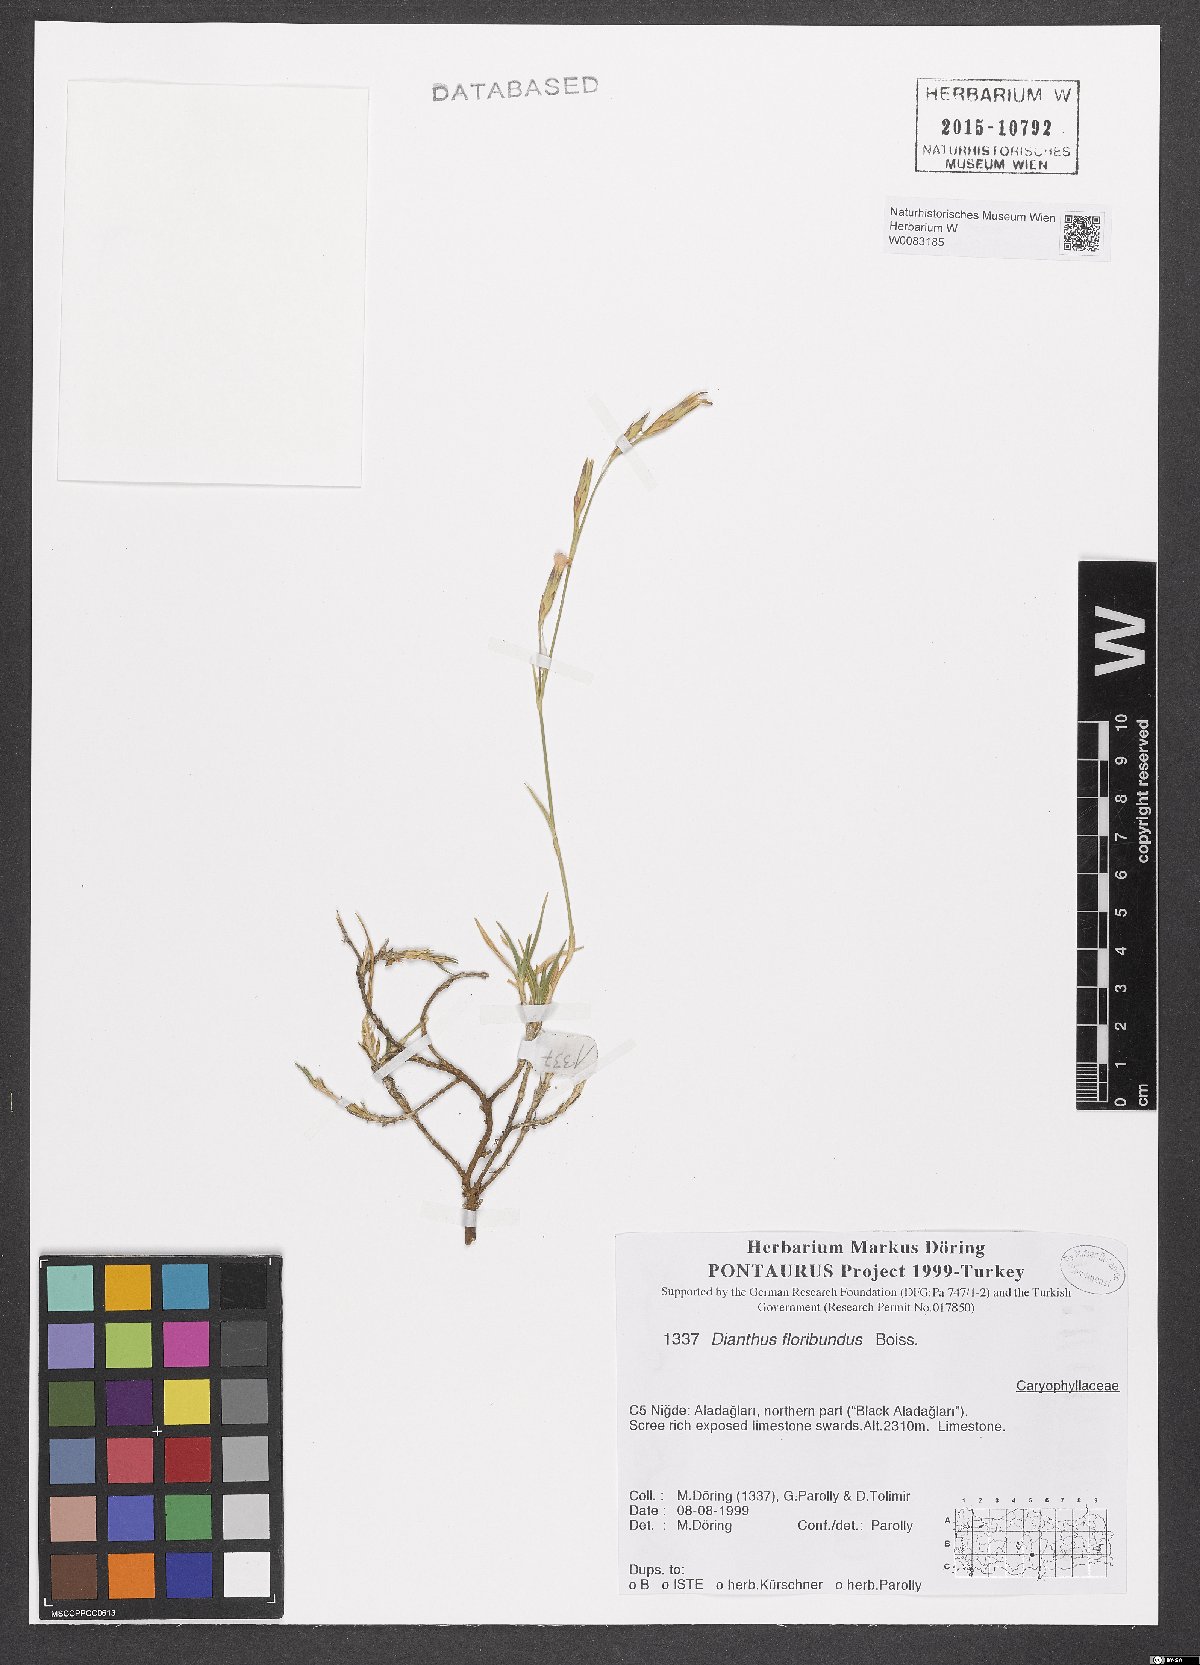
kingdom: Plantae
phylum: Tracheophyta
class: Magnoliopsida
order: Caryophyllales
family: Caryophyllaceae
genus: Dianthus
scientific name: Dianthus floribundus
